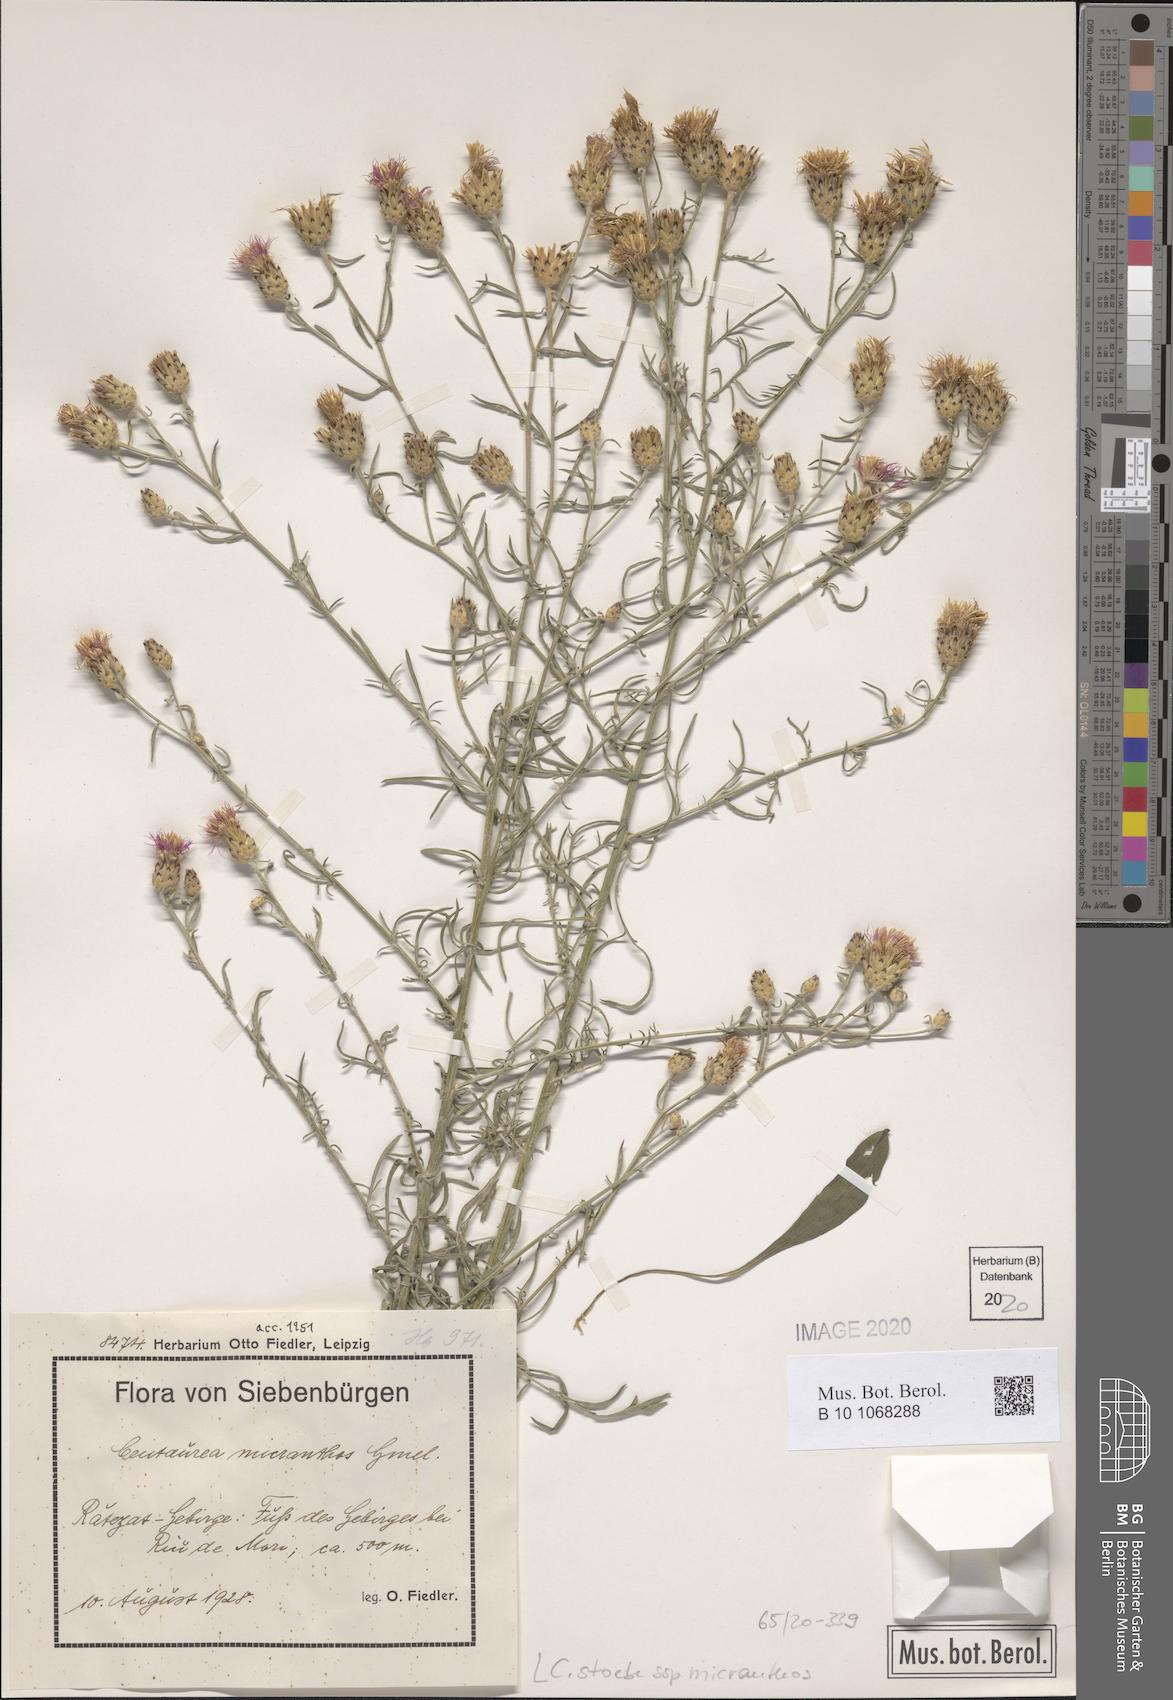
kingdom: Plantae
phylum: Tracheophyta
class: Magnoliopsida
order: Asterales
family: Asteraceae
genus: Centaurea
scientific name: Centaurea australis
